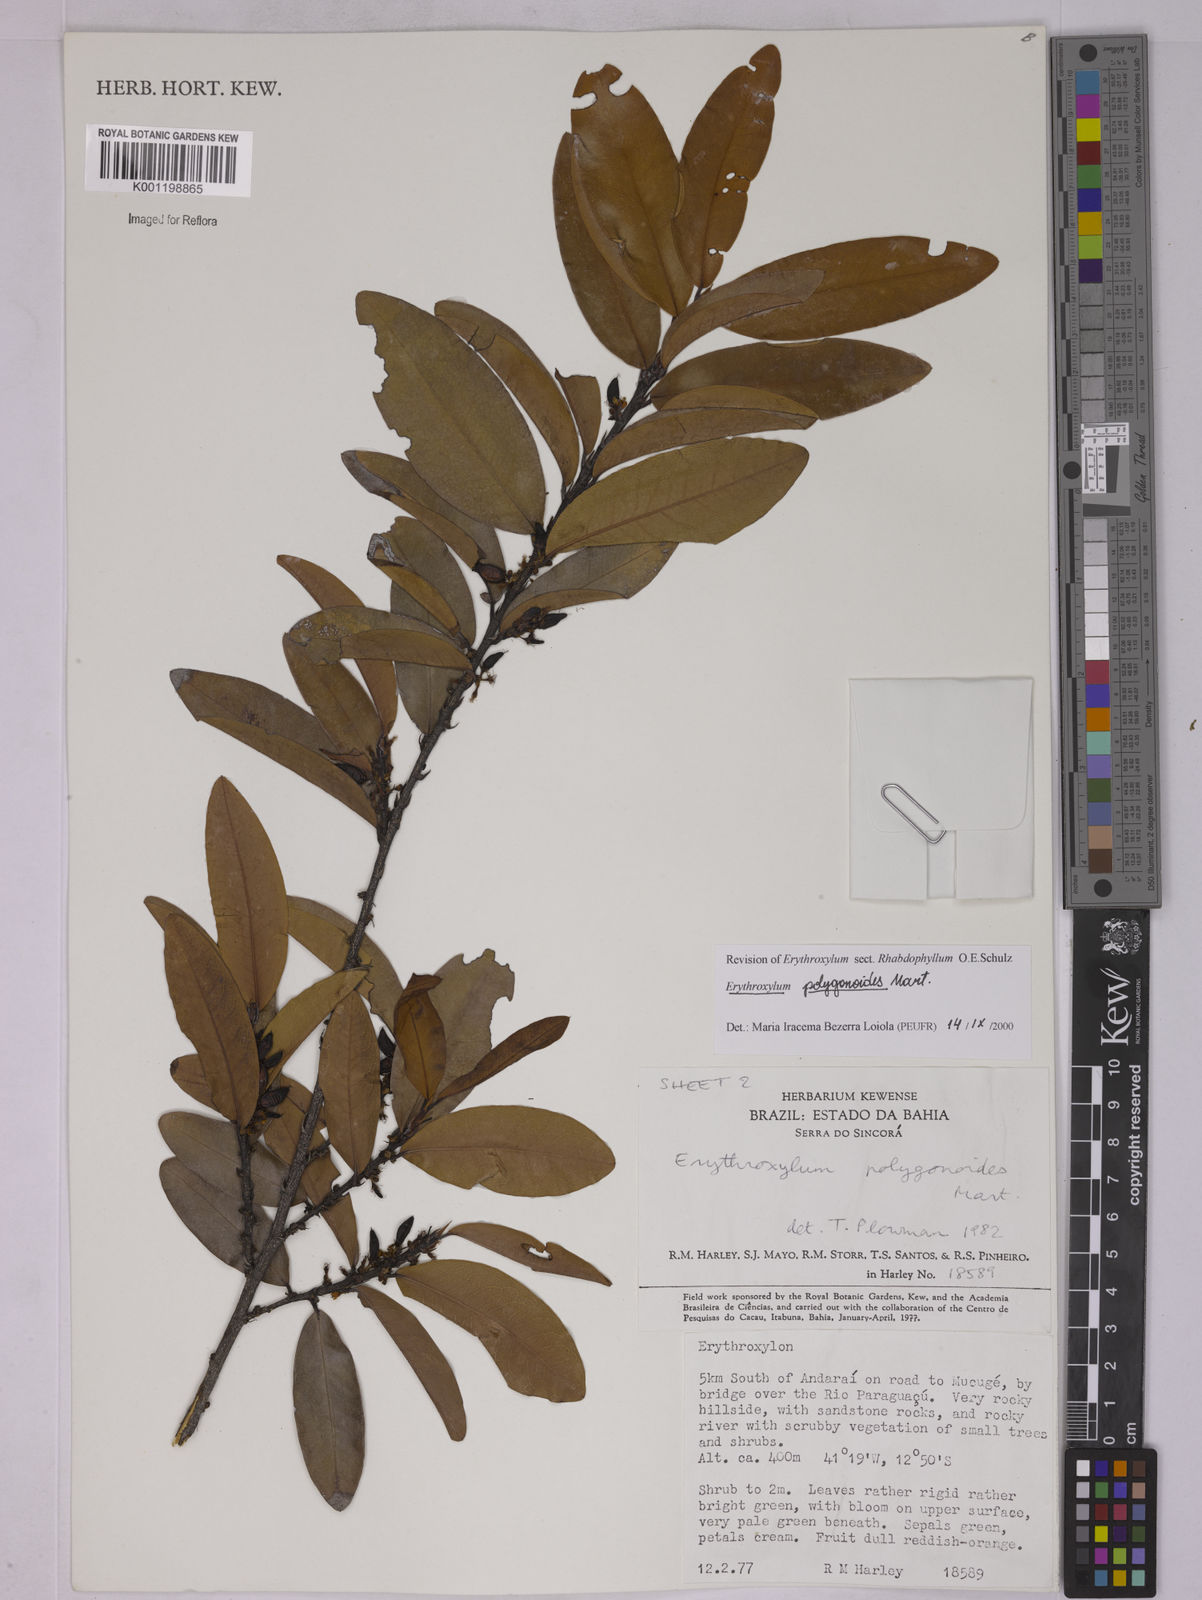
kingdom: Plantae
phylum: Tracheophyta
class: Magnoliopsida
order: Malpighiales
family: Erythroxylaceae
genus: Erythroxylum
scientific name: Erythroxylum polygonoides
